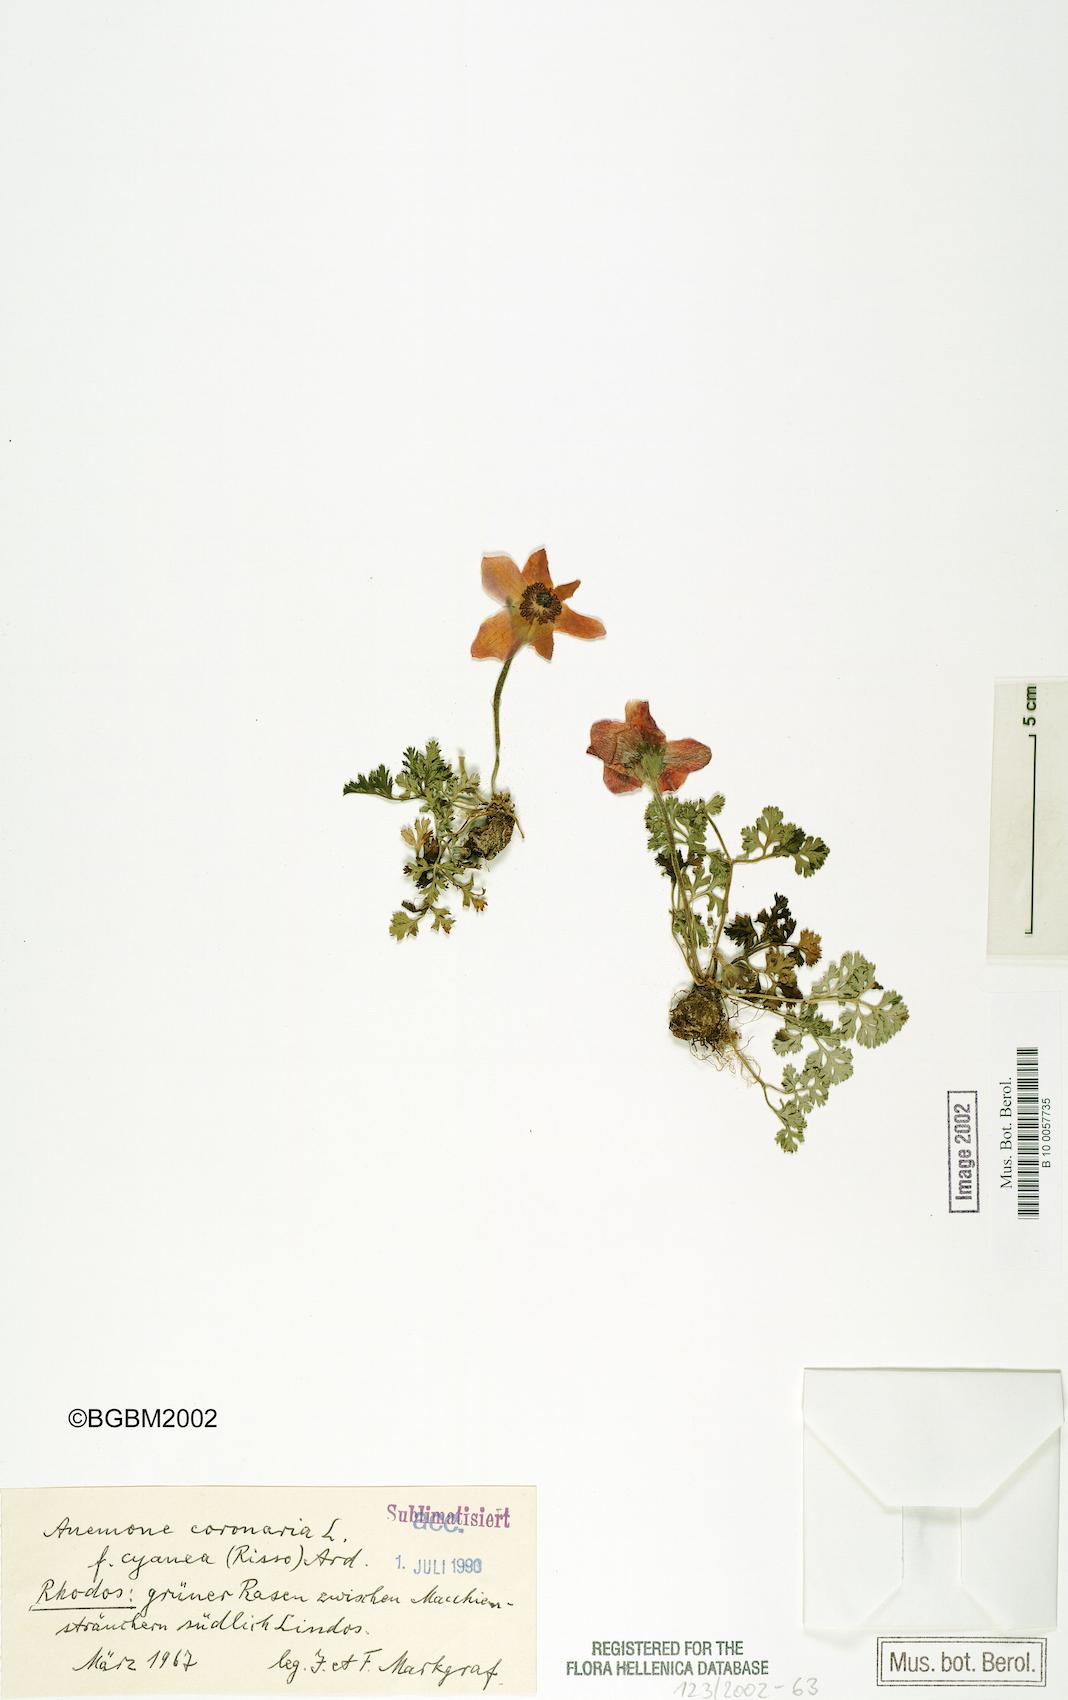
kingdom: Plantae
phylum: Tracheophyta
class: Magnoliopsida
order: Ranunculales
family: Ranunculaceae
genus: Anemone
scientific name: Anemone coronaria
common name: Poppy anemone
